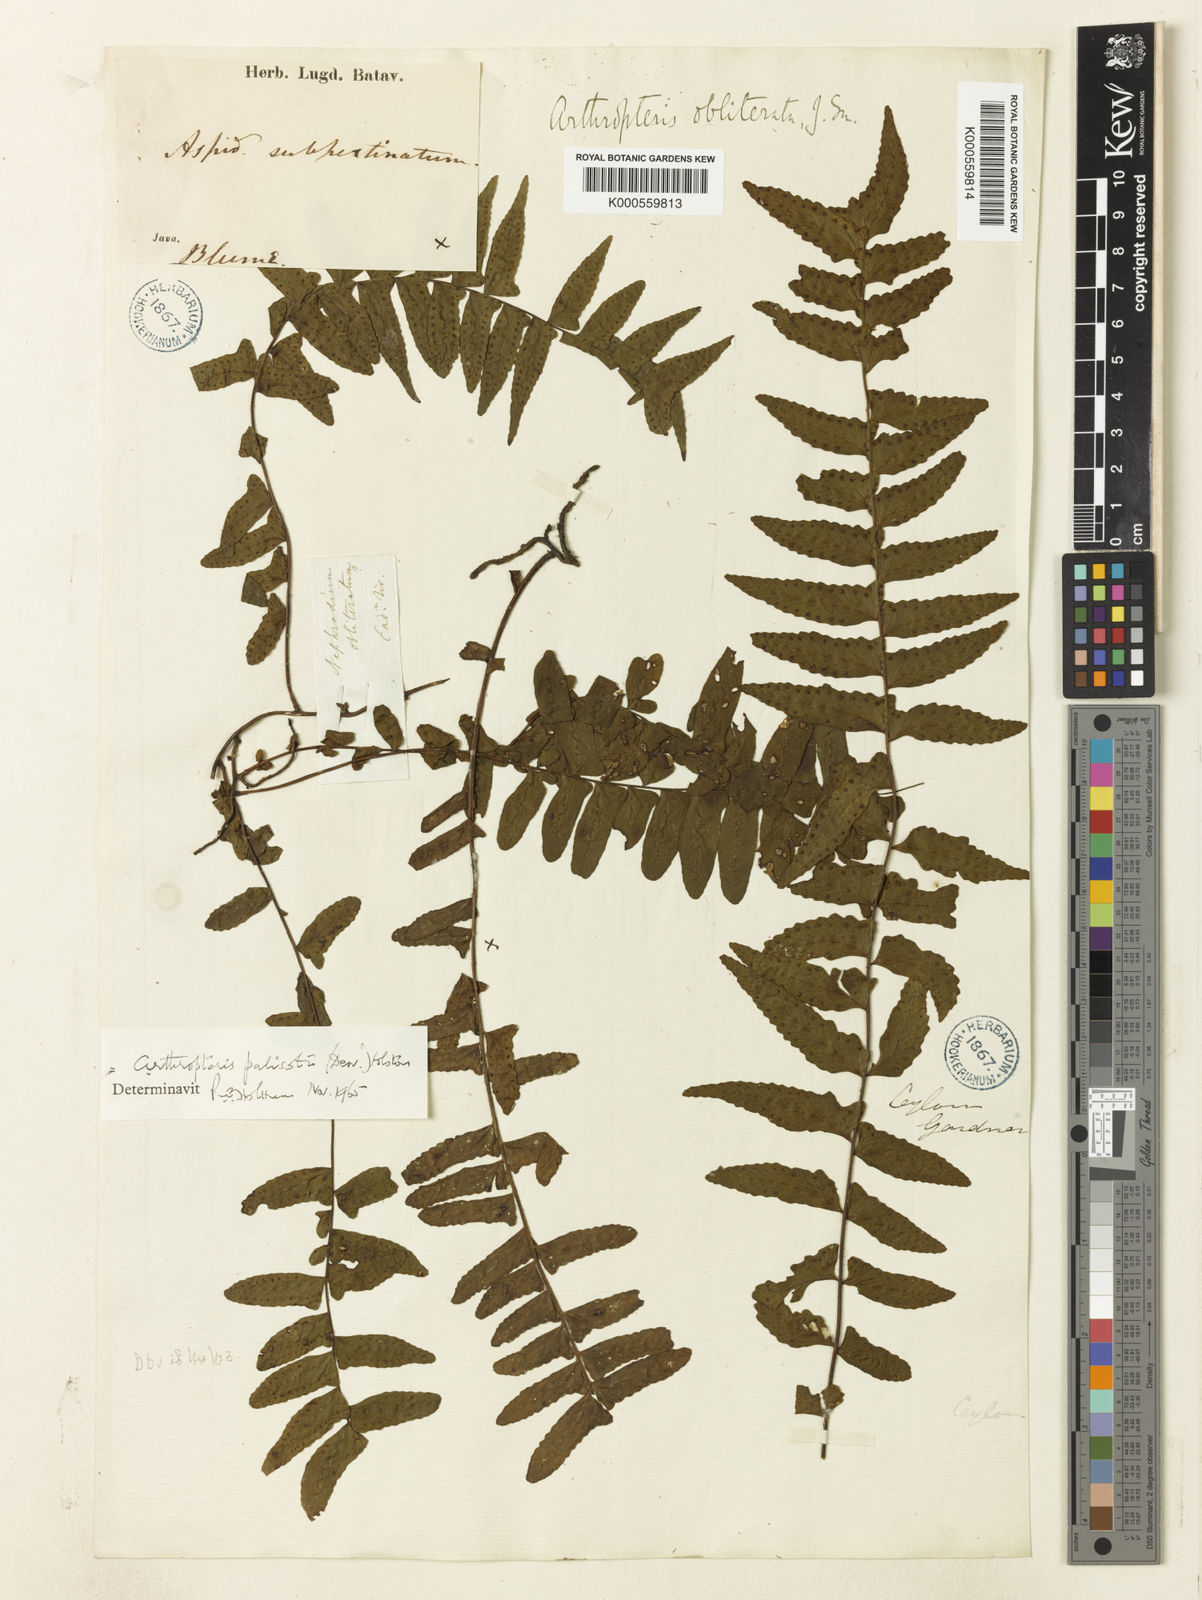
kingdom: Plantae
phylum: Tracheophyta
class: Polypodiopsida
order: Polypodiales
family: Tectariaceae
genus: Arthropteris
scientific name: Arthropteris palisotii
